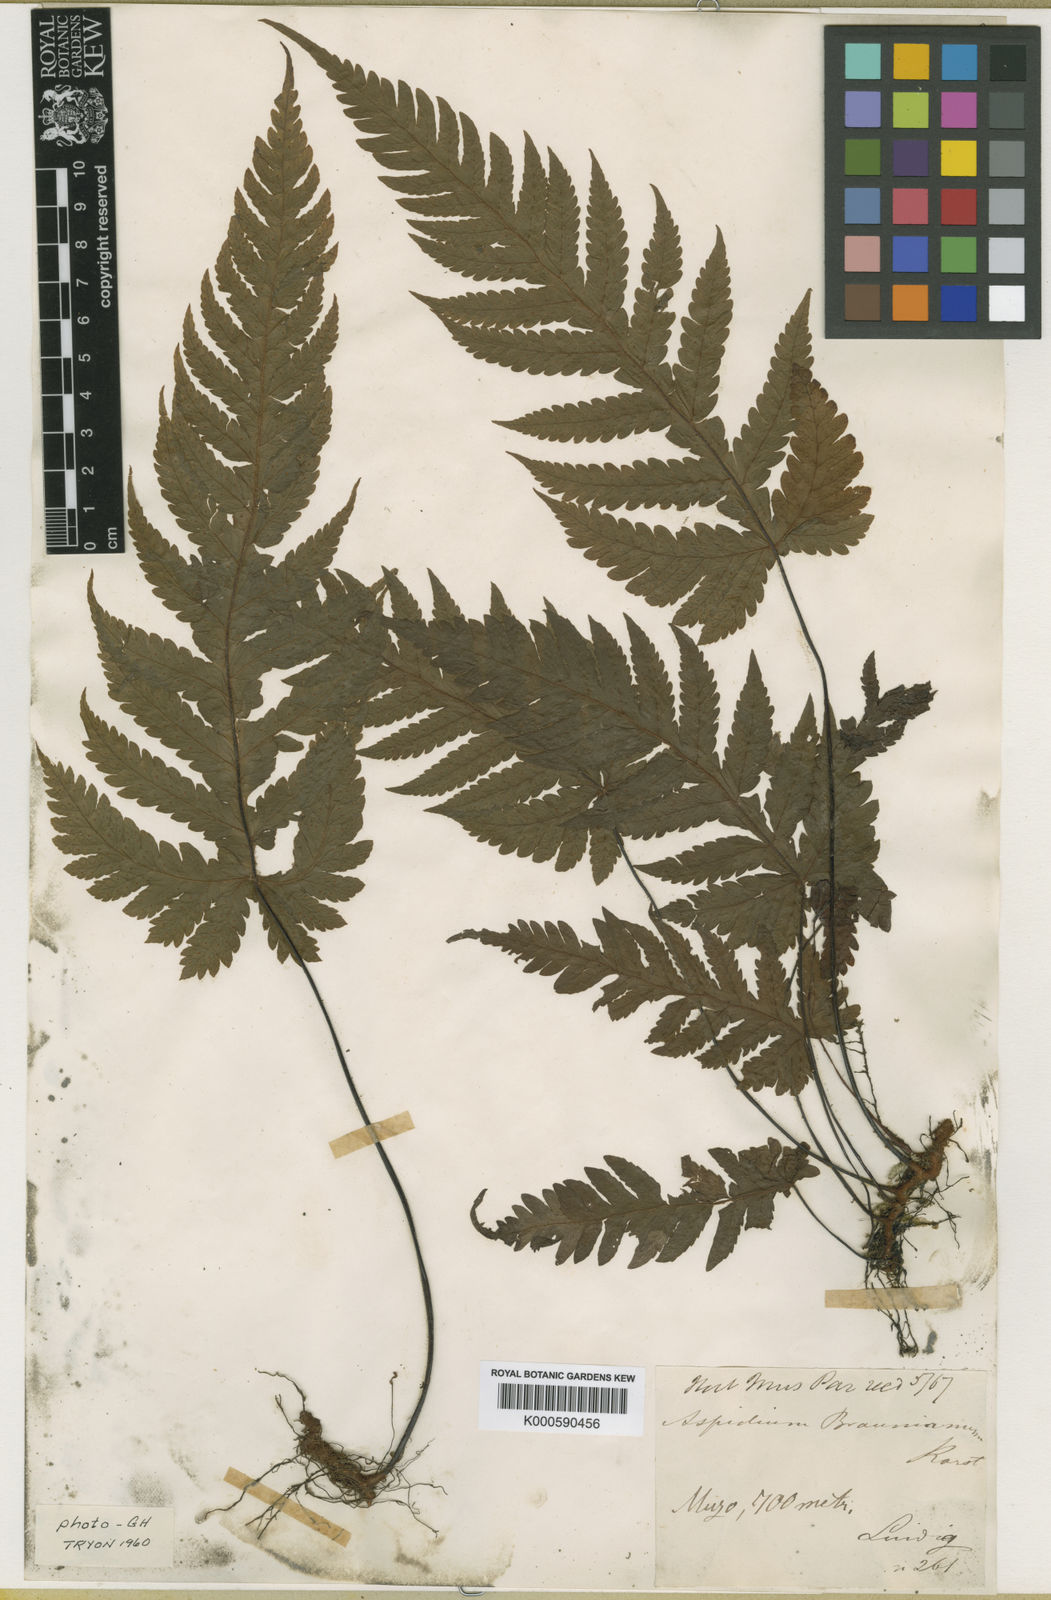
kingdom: Plantae
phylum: Tracheophyta
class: Polypodiopsida
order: Polypodiales
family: Tectariaceae
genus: Hypoderris
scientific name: Hypoderris brauniana
